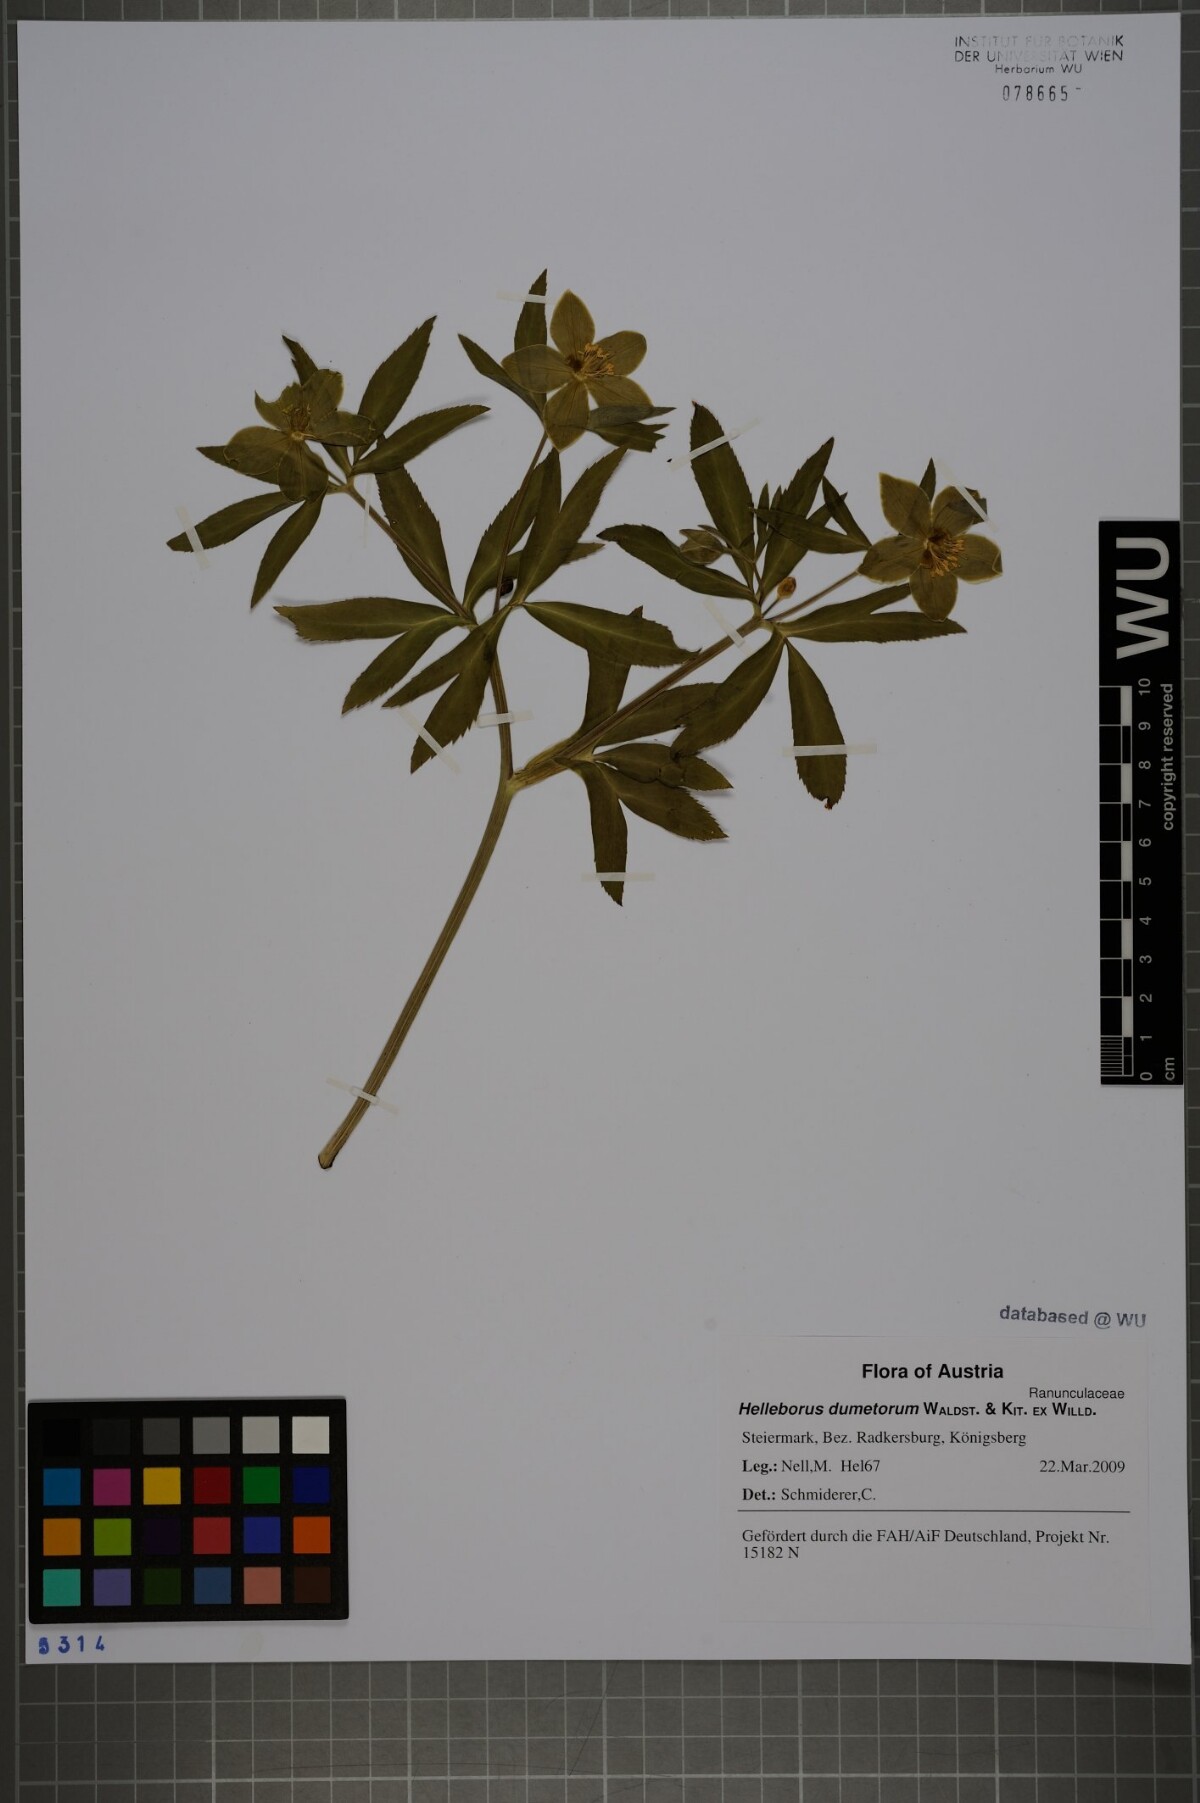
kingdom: Plantae
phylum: Tracheophyta
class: Magnoliopsida
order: Ranunculales
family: Ranunculaceae
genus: Helleborus
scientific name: Helleborus dumetorum
